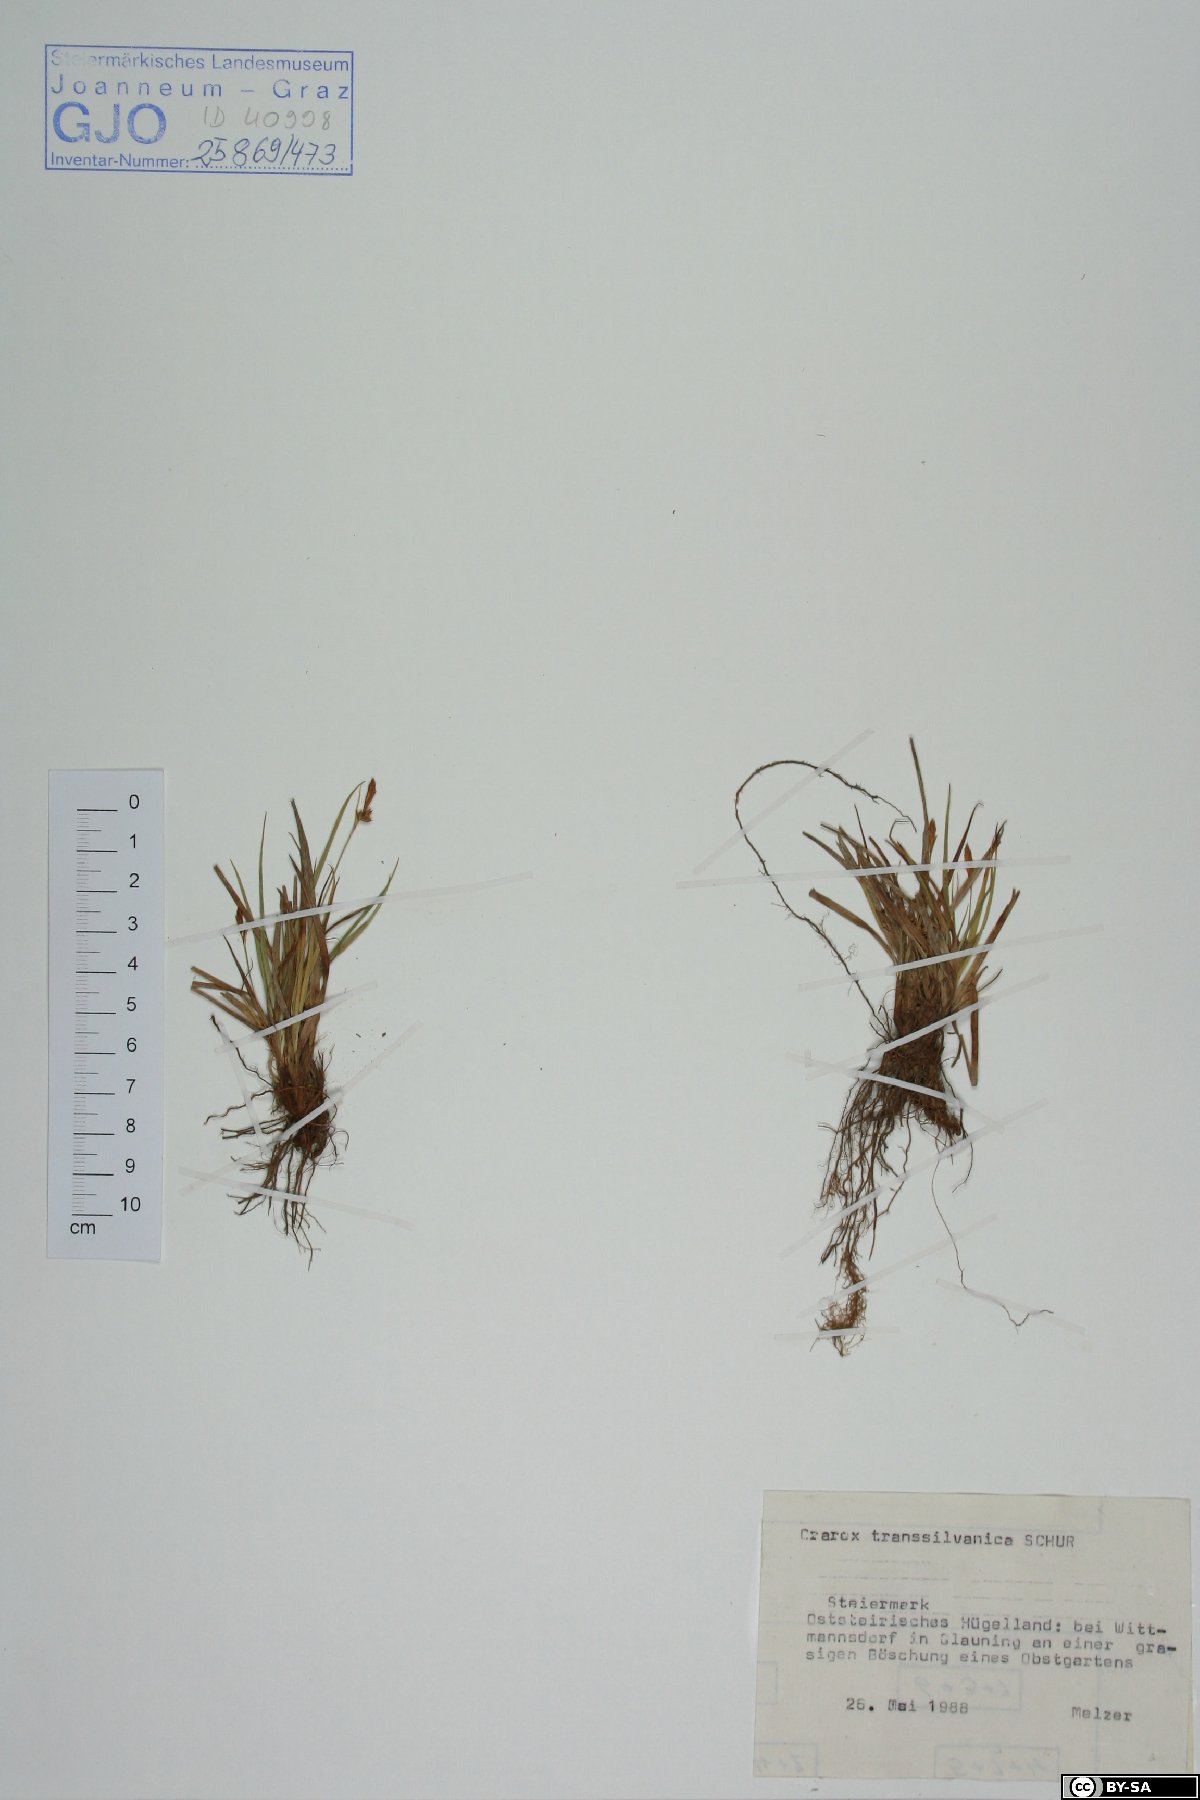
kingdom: Plantae
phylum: Tracheophyta
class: Liliopsida
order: Poales
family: Cyperaceae
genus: Carex
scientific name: Carex depressa
